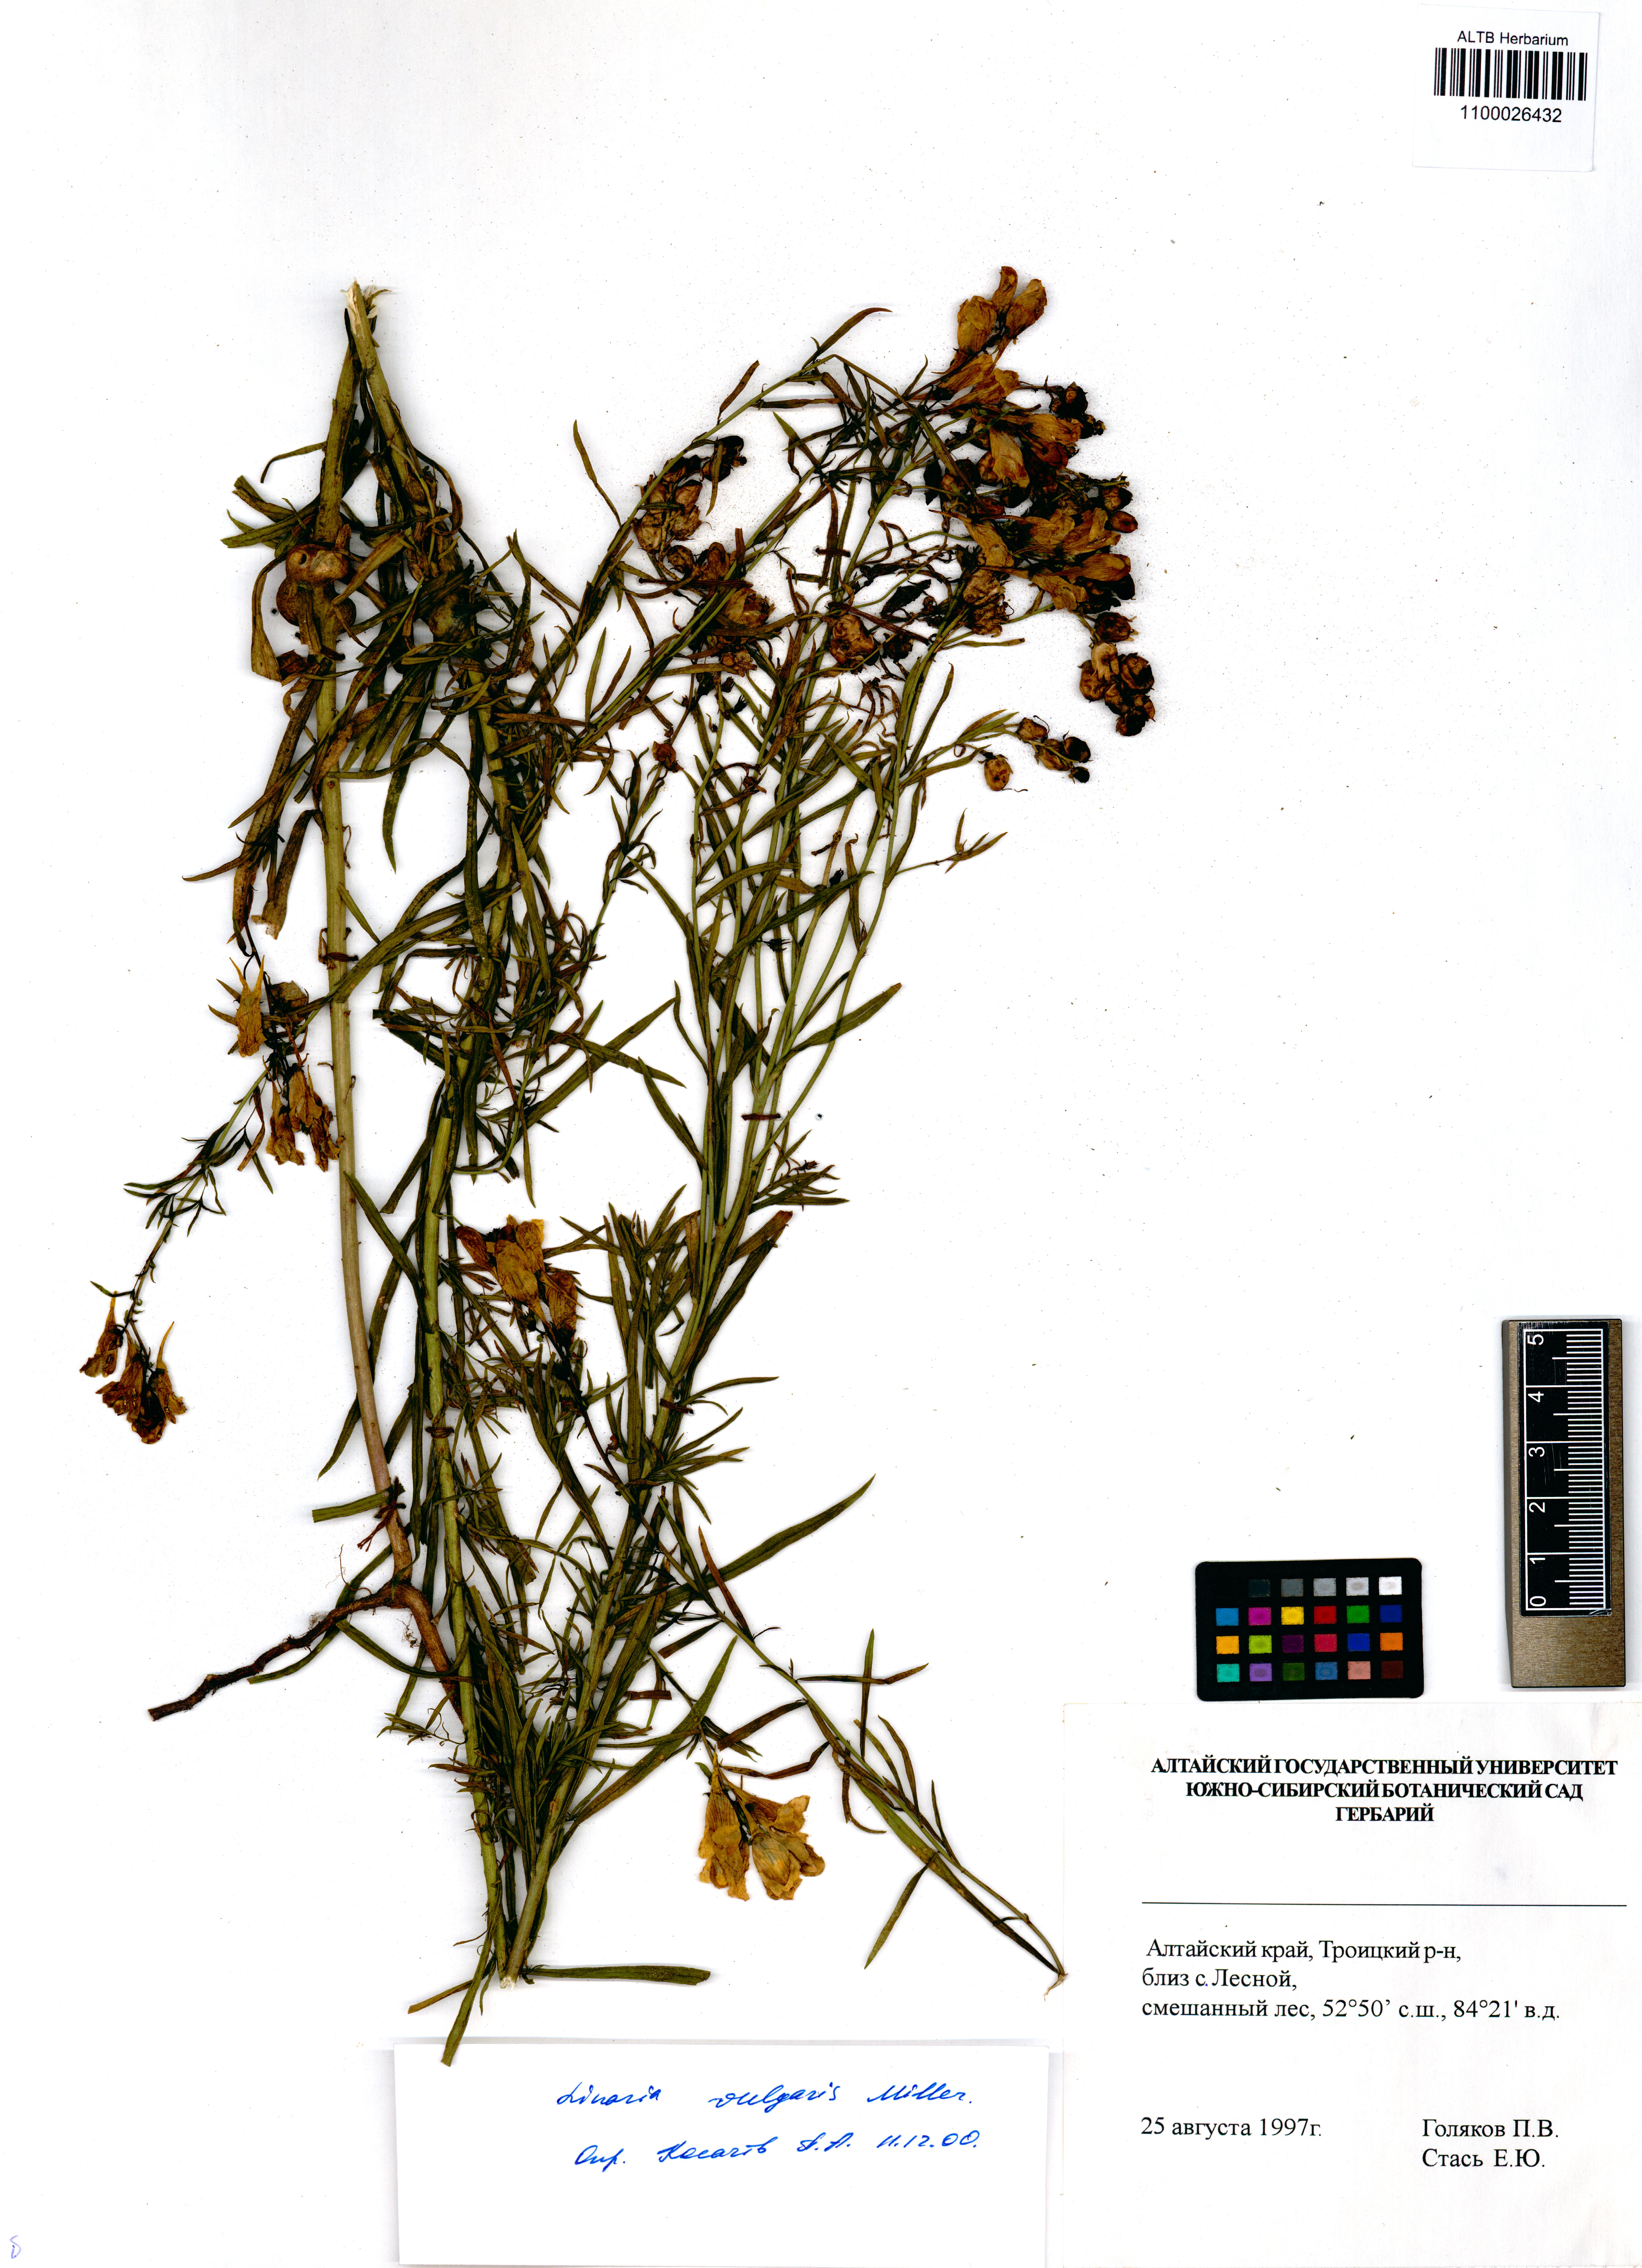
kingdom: Plantae
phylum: Tracheophyta
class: Magnoliopsida
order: Lamiales
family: Plantaginaceae
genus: Linaria
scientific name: Linaria vulgaris
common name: Butter and eggs
